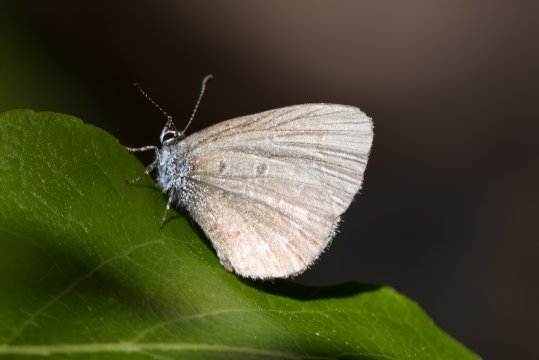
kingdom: Animalia
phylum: Arthropoda
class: Insecta
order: Lepidoptera
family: Lycaenidae
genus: Celastrina
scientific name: Celastrina lucia
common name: Northern Spring Azure
